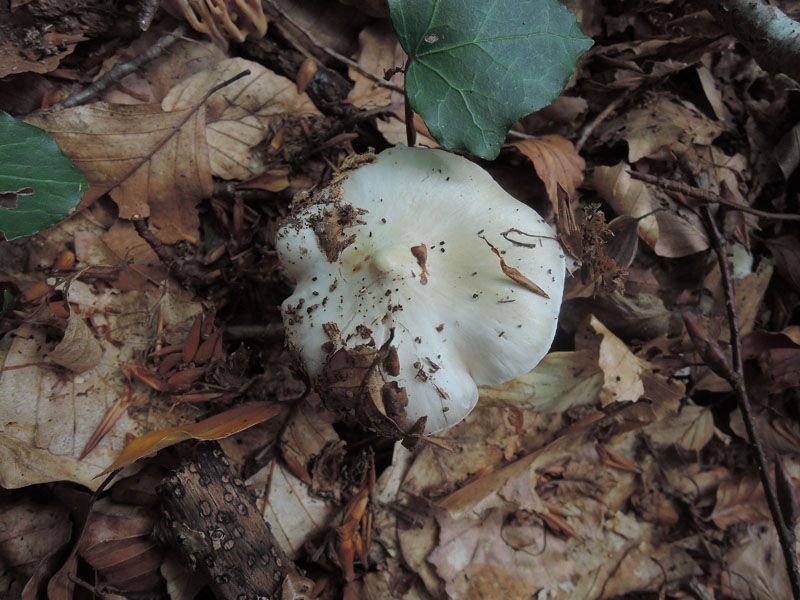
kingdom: Fungi
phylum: Basidiomycota
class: Agaricomycetes
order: Agaricales
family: Tricholomataceae
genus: Tricholoma
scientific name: Tricholoma umbonatum
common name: puklet ridderhat
